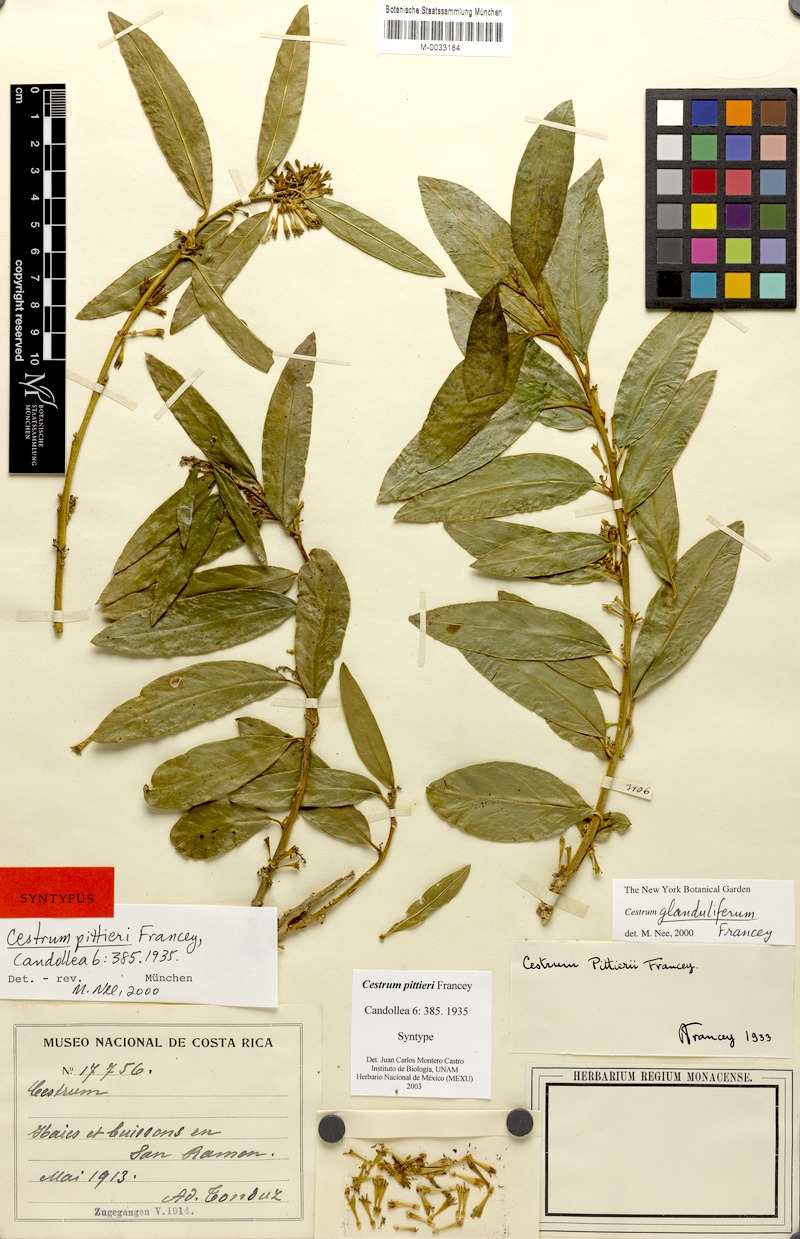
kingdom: Plantae
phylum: Tracheophyta
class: Magnoliopsida
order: Solanales
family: Solanaceae
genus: Cestrum
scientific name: Cestrum glanduliferum
